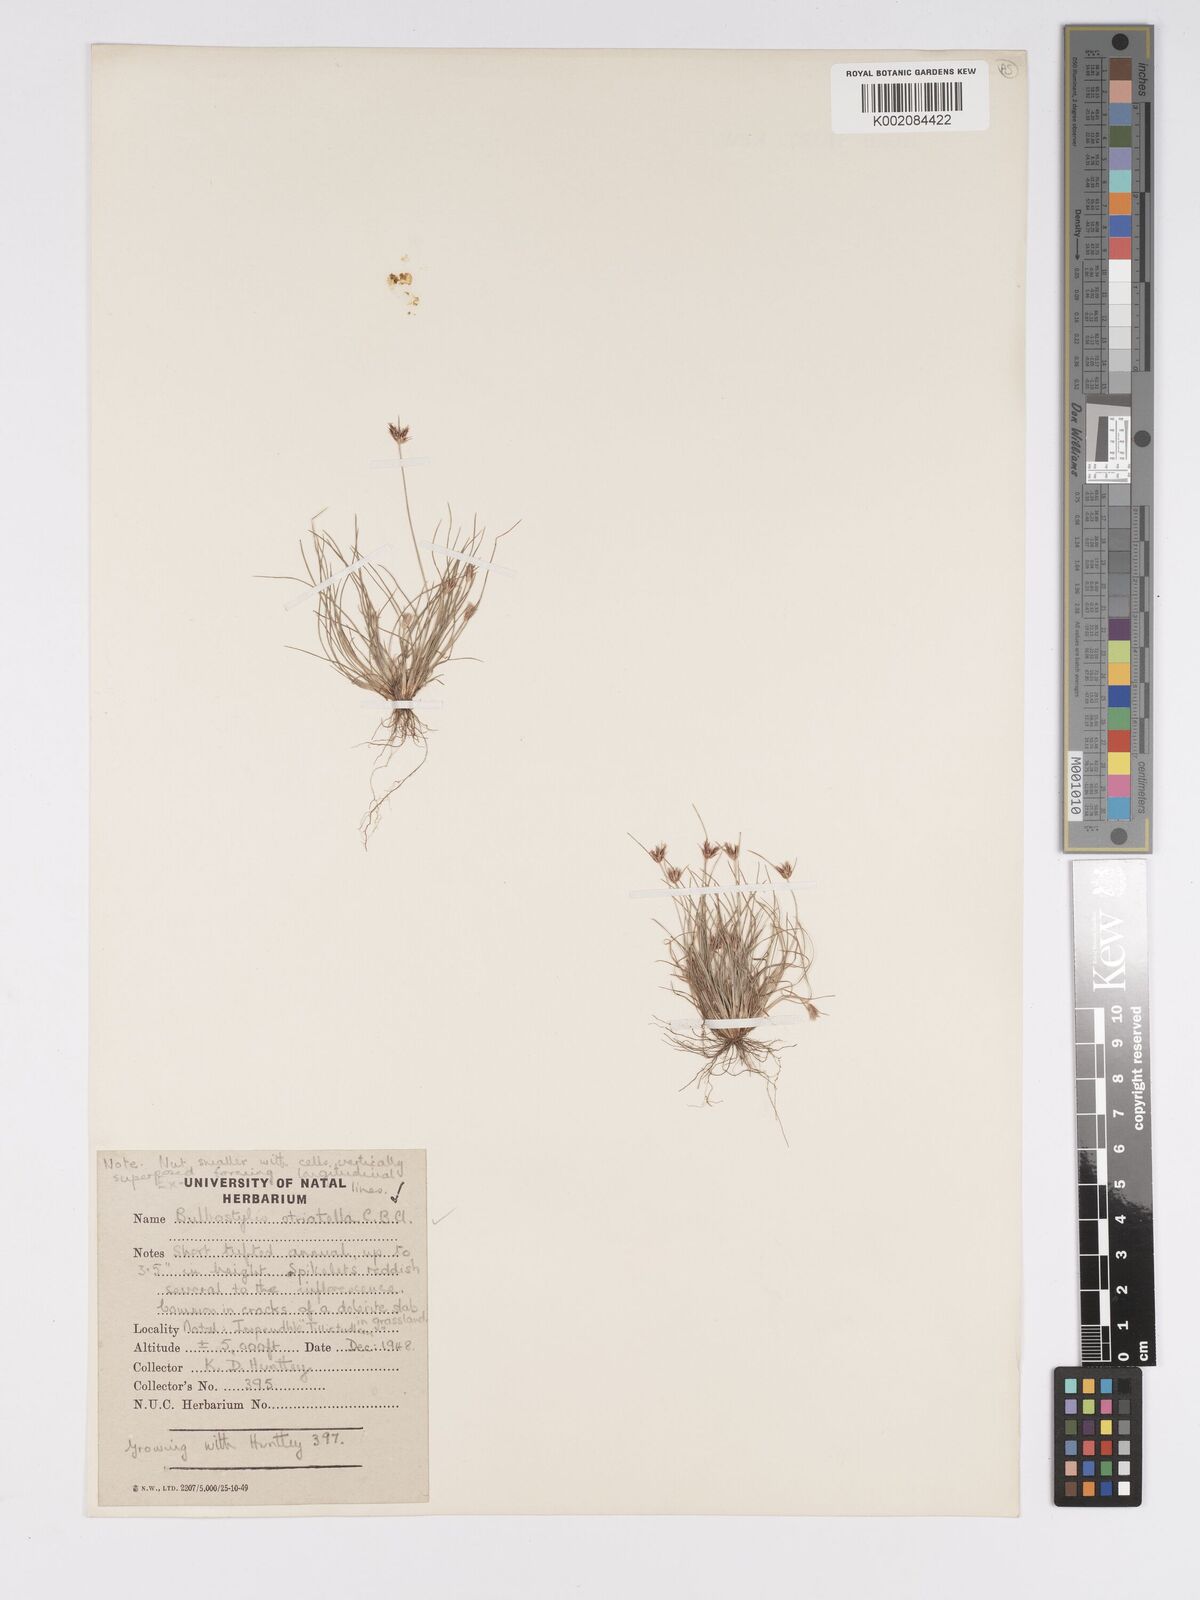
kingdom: Plantae
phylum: Tracheophyta
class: Liliopsida
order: Poales
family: Cyperaceae
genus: Bulbostylis
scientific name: Bulbostylis humilis
